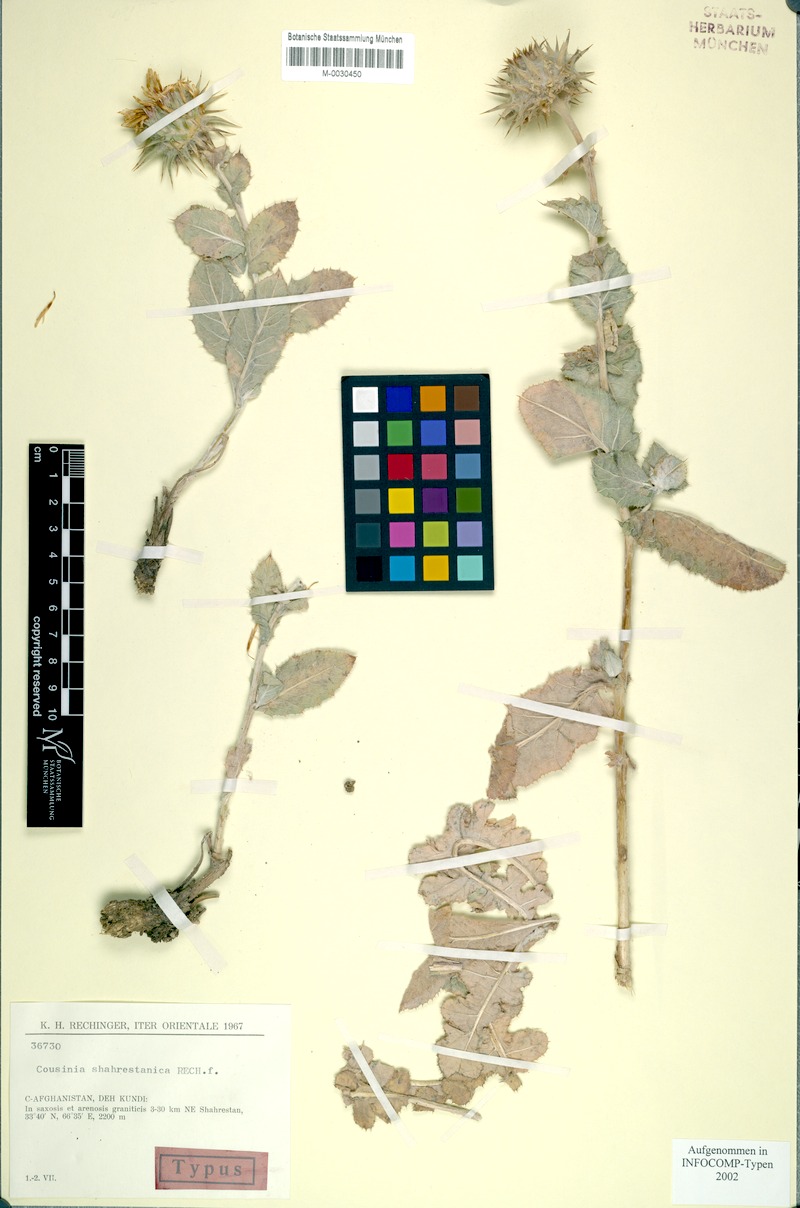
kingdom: Plantae
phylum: Tracheophyta
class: Magnoliopsida
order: Asterales
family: Asteraceae
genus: Cousinia
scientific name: Cousinia shahrestanica
